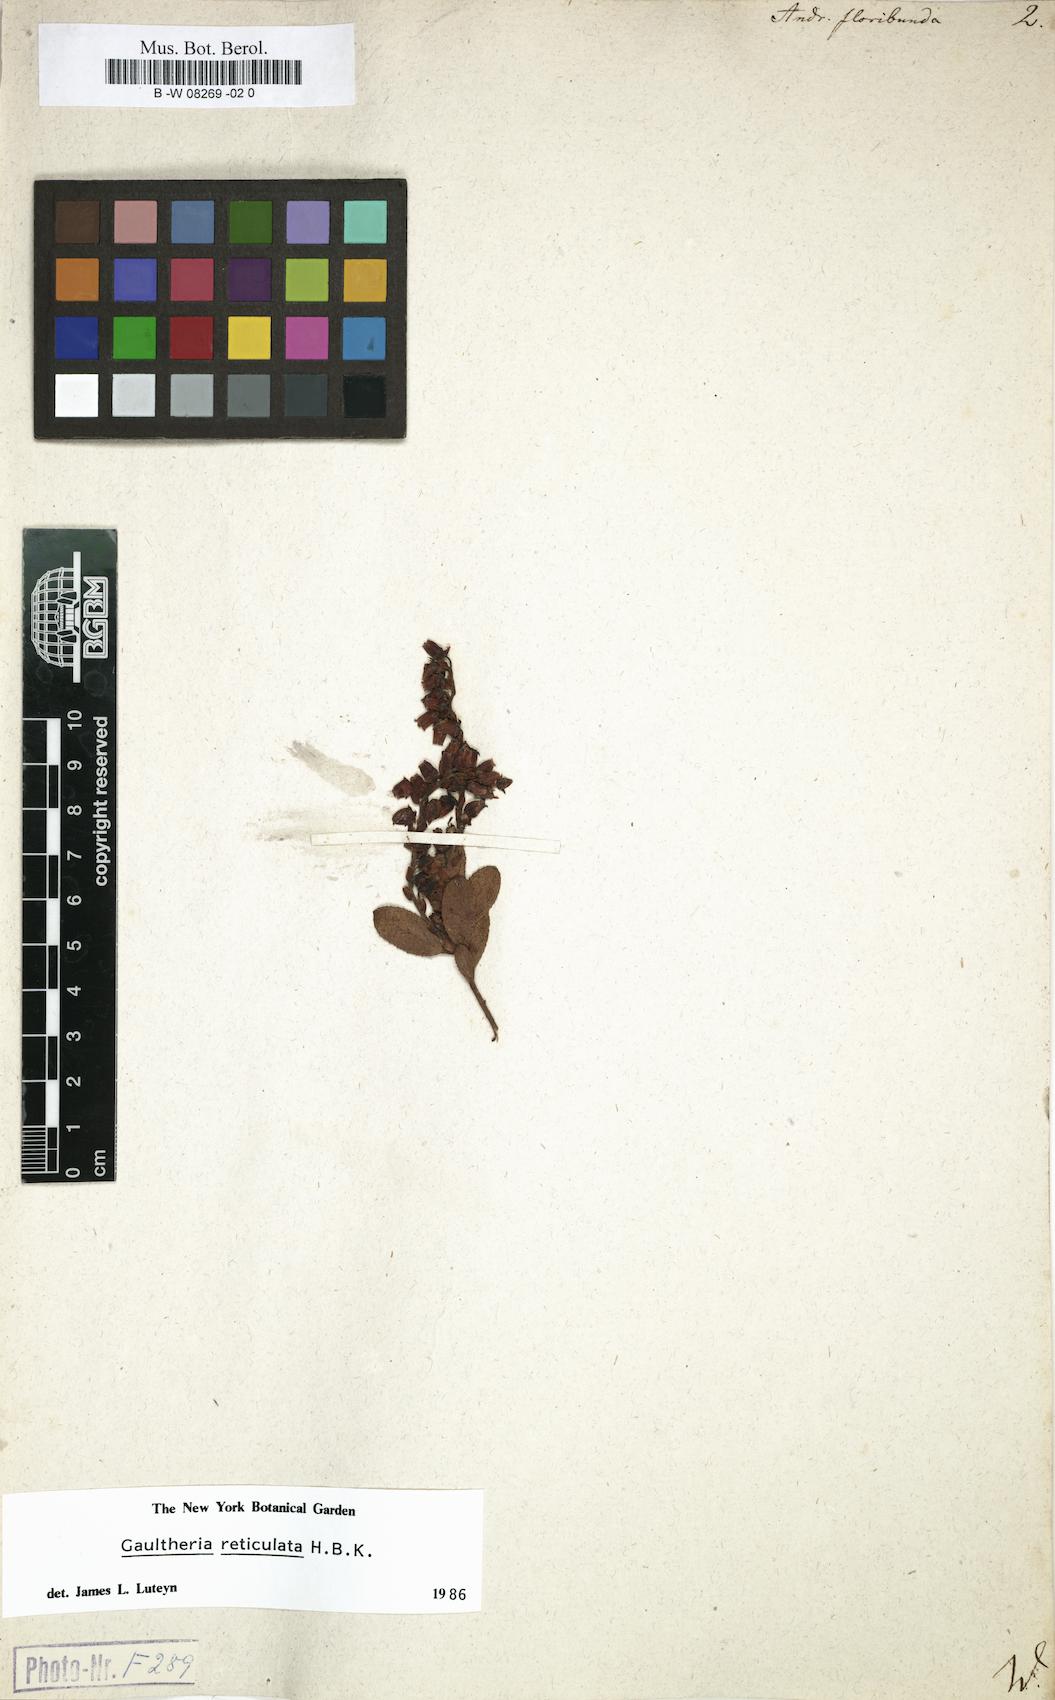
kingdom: Plantae
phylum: Tracheophyta
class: Magnoliopsida
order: Ericales
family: Ericaceae
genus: Pieris
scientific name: Pieris floribunda
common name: Flutterbush
